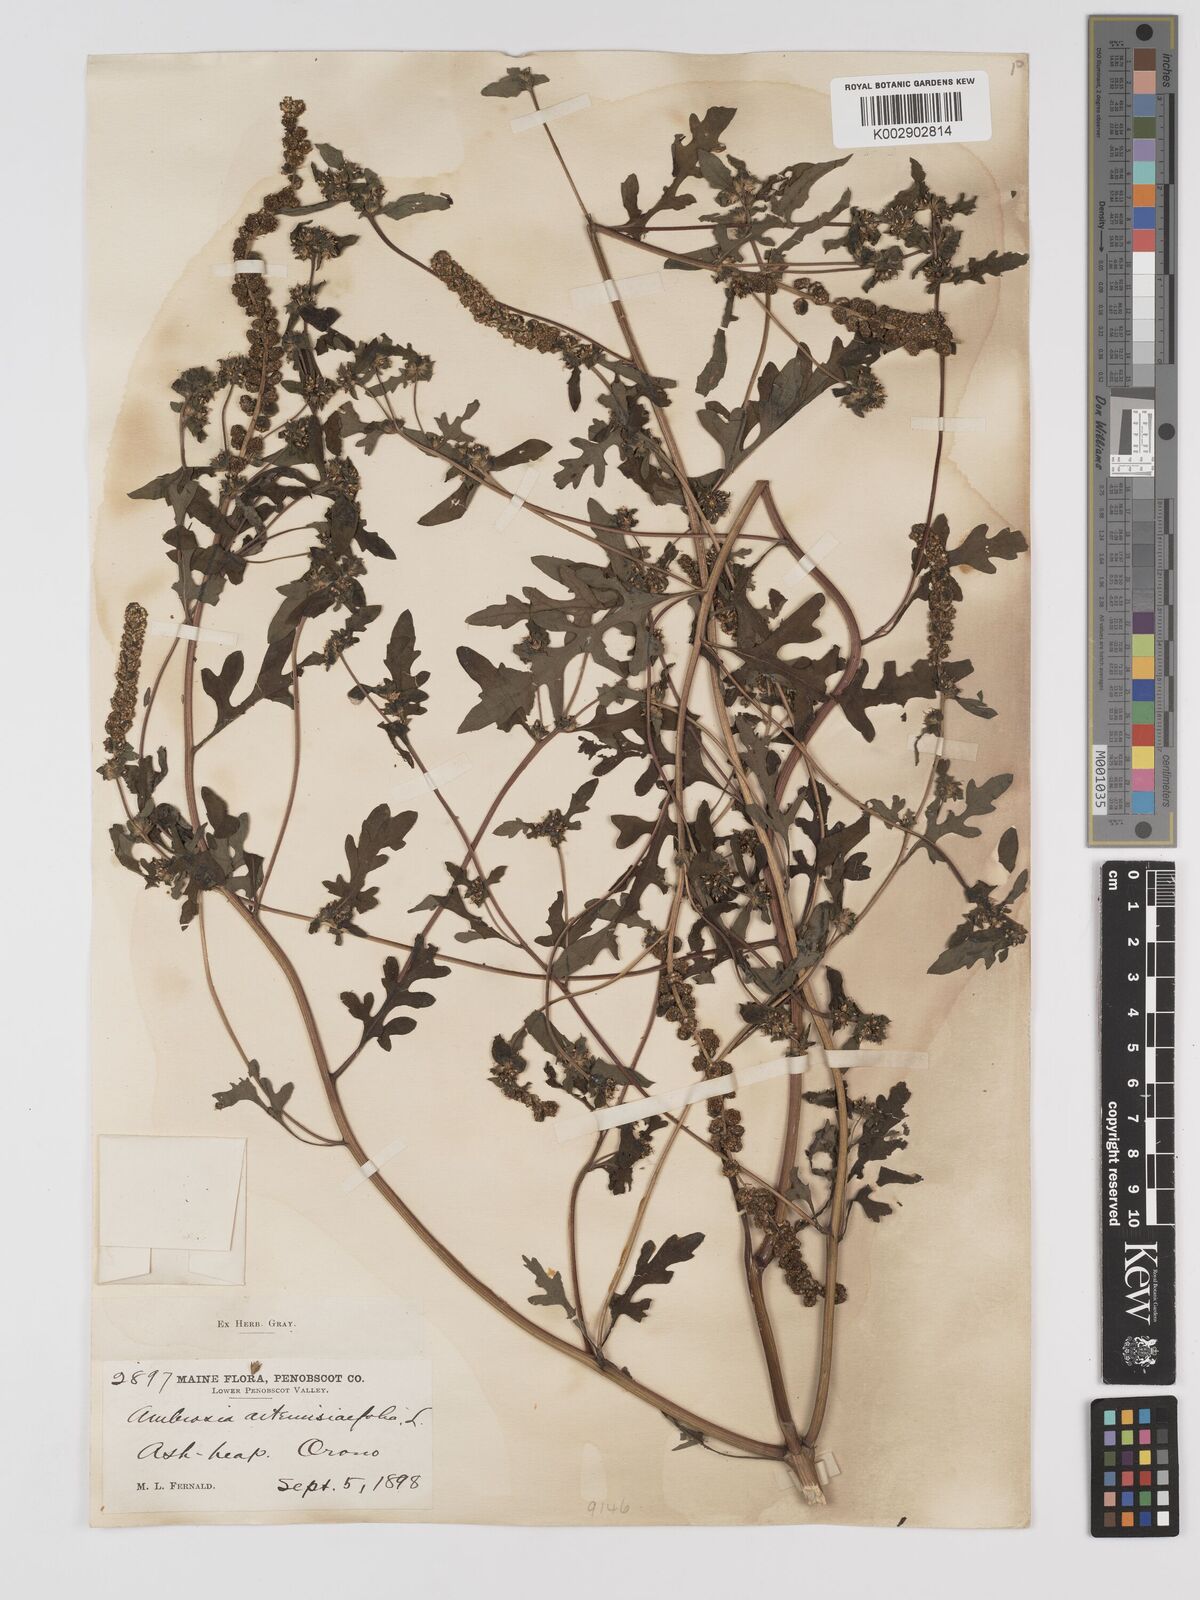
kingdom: Plantae
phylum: Tracheophyta
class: Magnoliopsida
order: Asterales
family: Asteraceae
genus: Ambrosia
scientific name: Ambrosia artemisiifolia
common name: Annual ragweed
